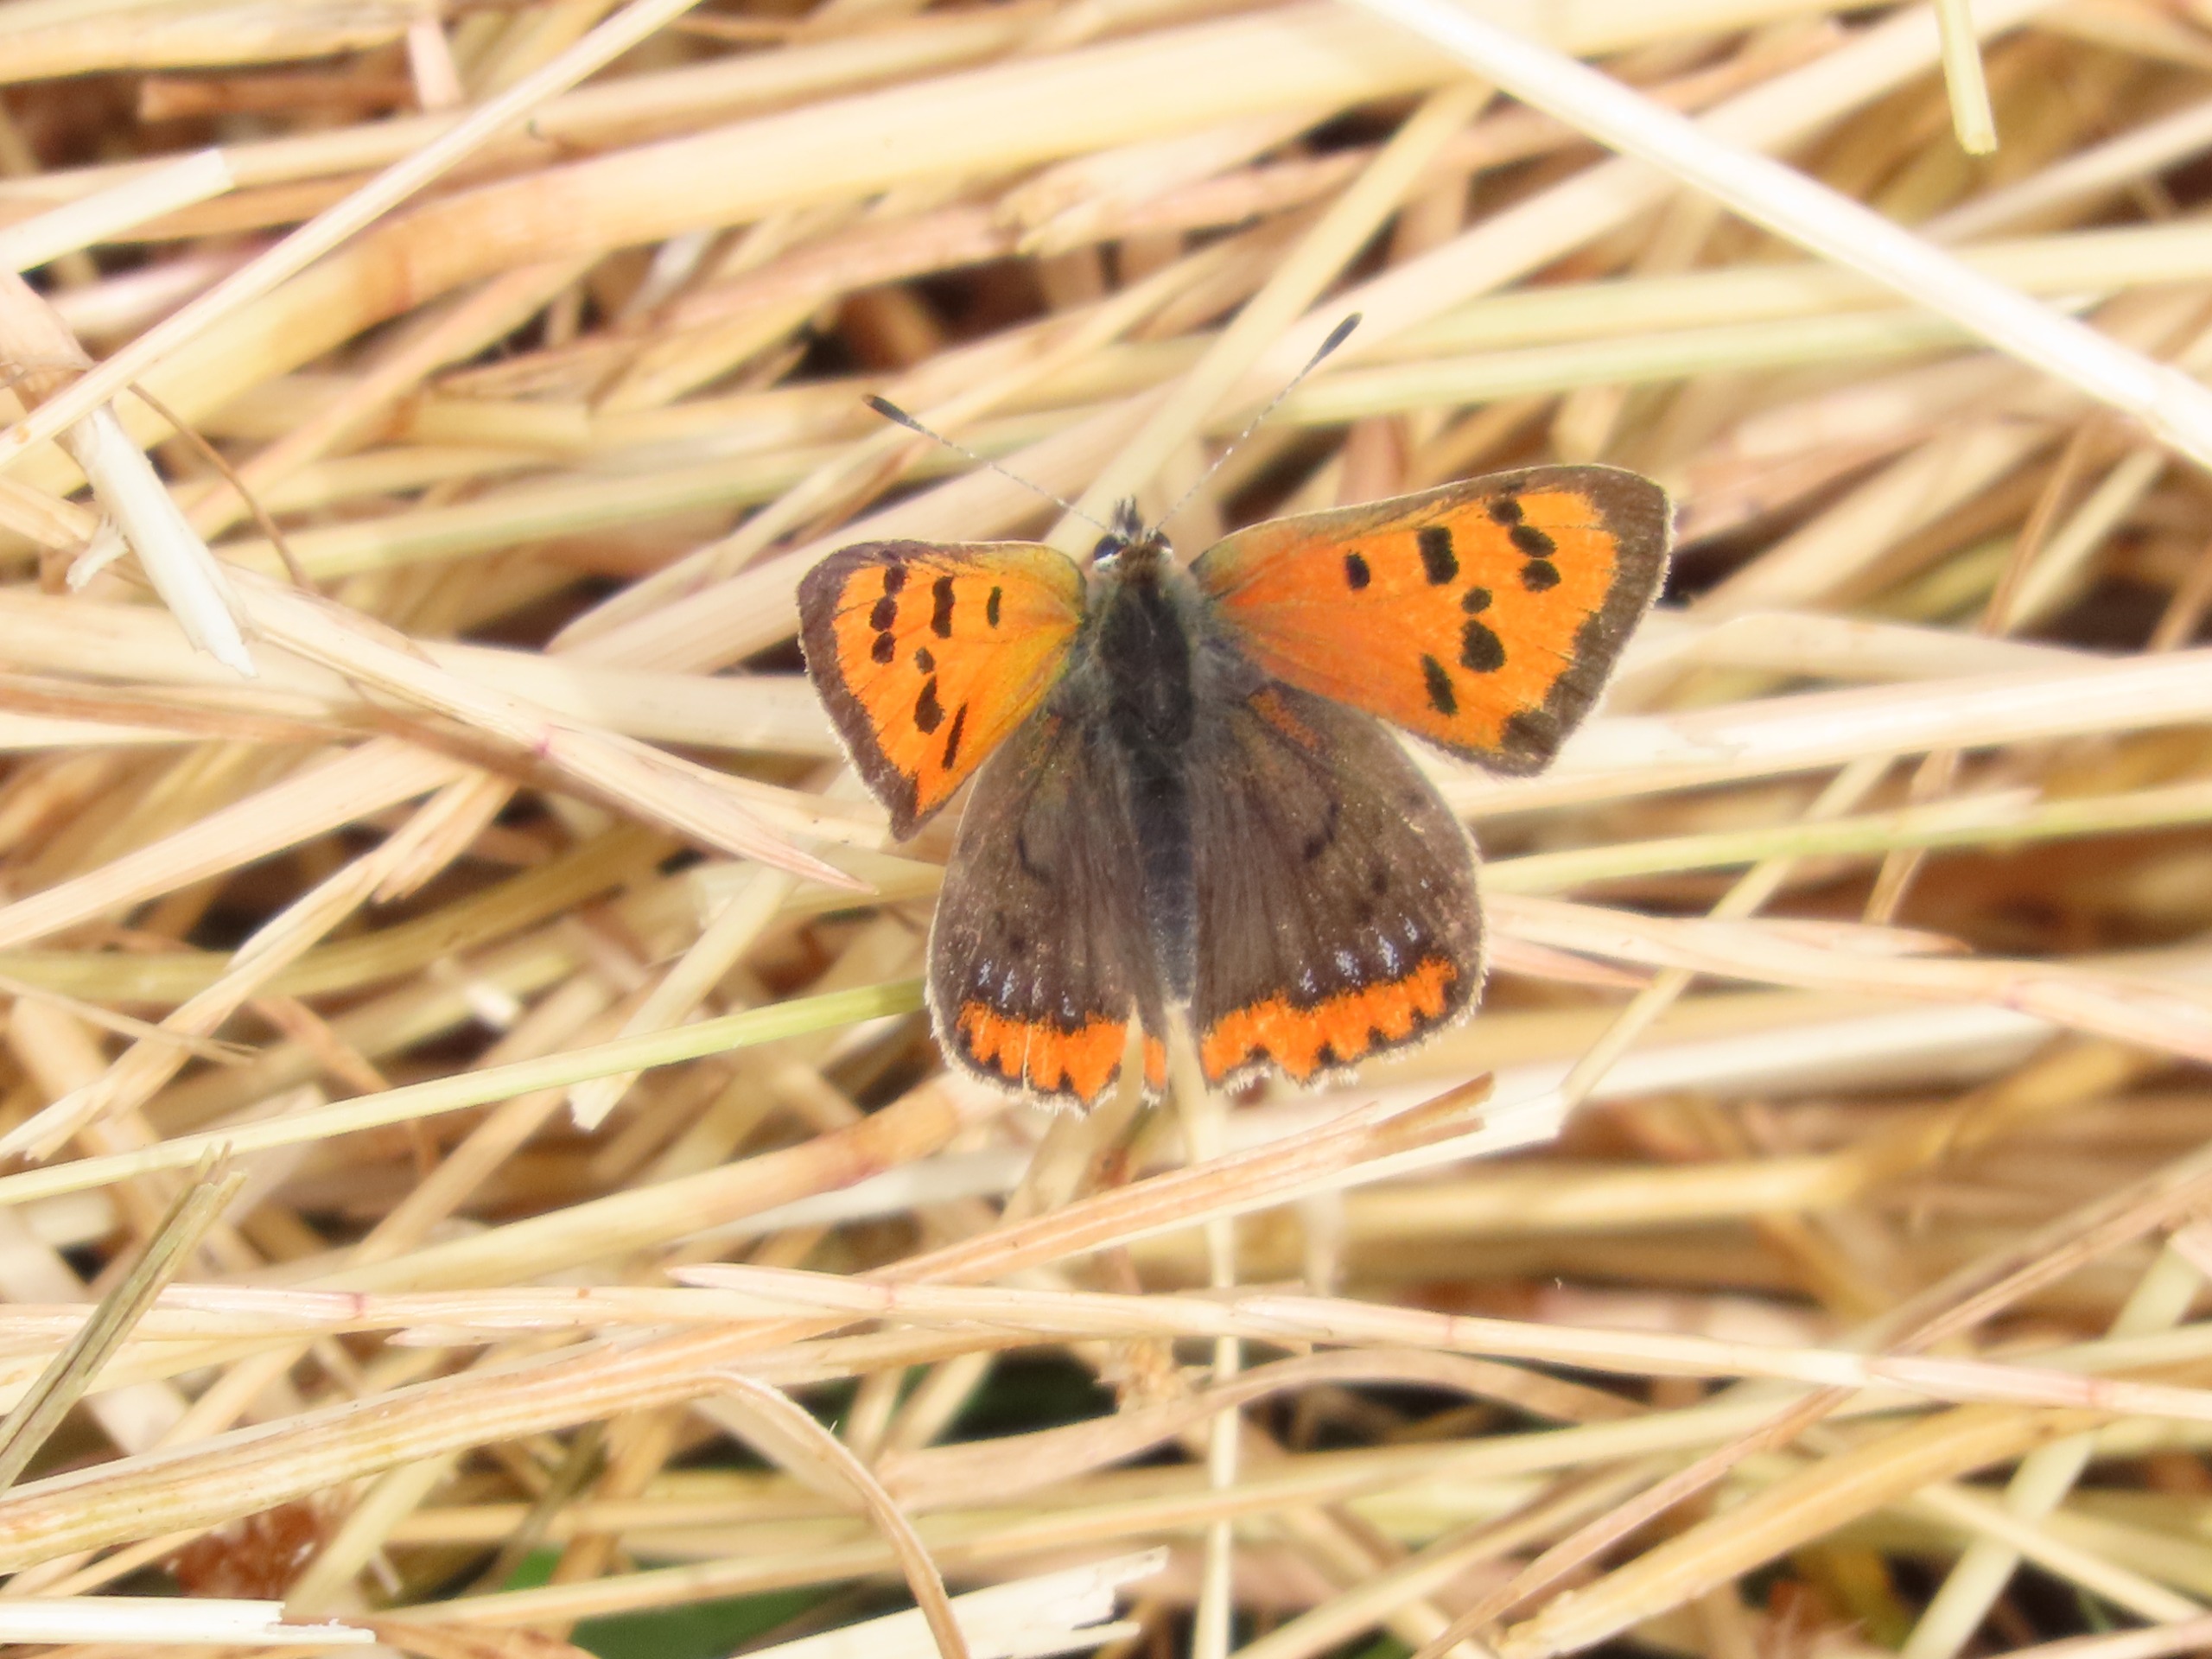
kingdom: Animalia
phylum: Arthropoda
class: Insecta
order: Lepidoptera
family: Lycaenidae
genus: Lycaena
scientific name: Lycaena phlaeas
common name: Lille ildfugl
